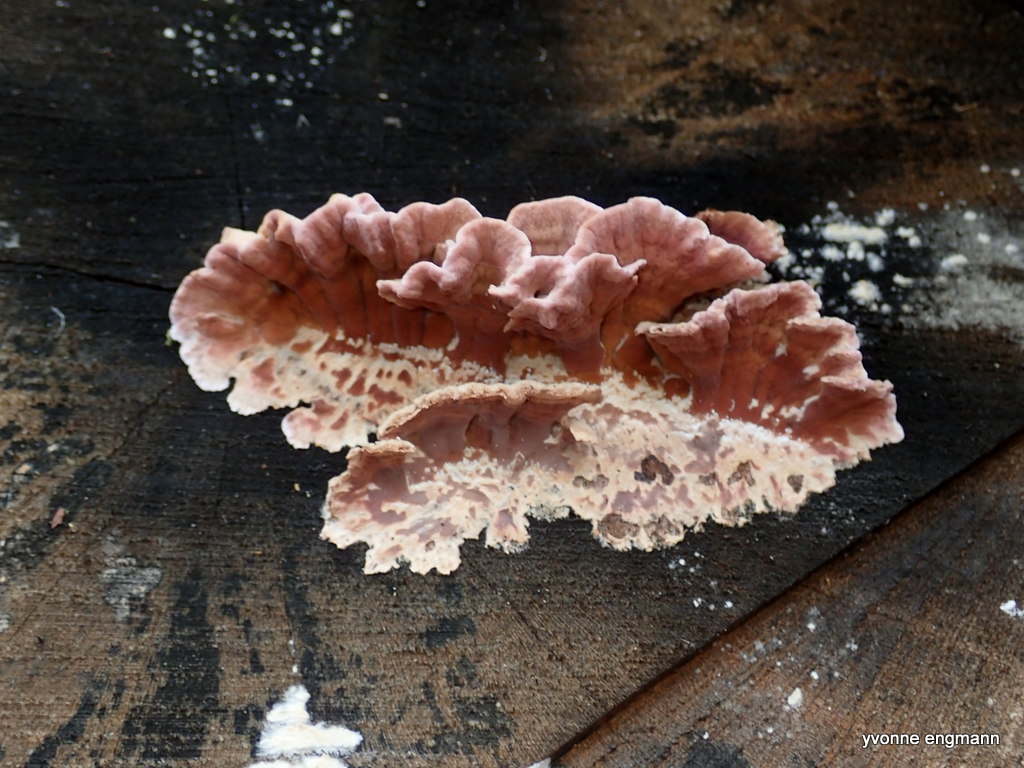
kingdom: Fungi
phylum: Basidiomycota
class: Agaricomycetes
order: Agaricales
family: Cyphellaceae
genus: Chondrostereum
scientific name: Chondrostereum purpureum
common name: purpurlædersvamp
